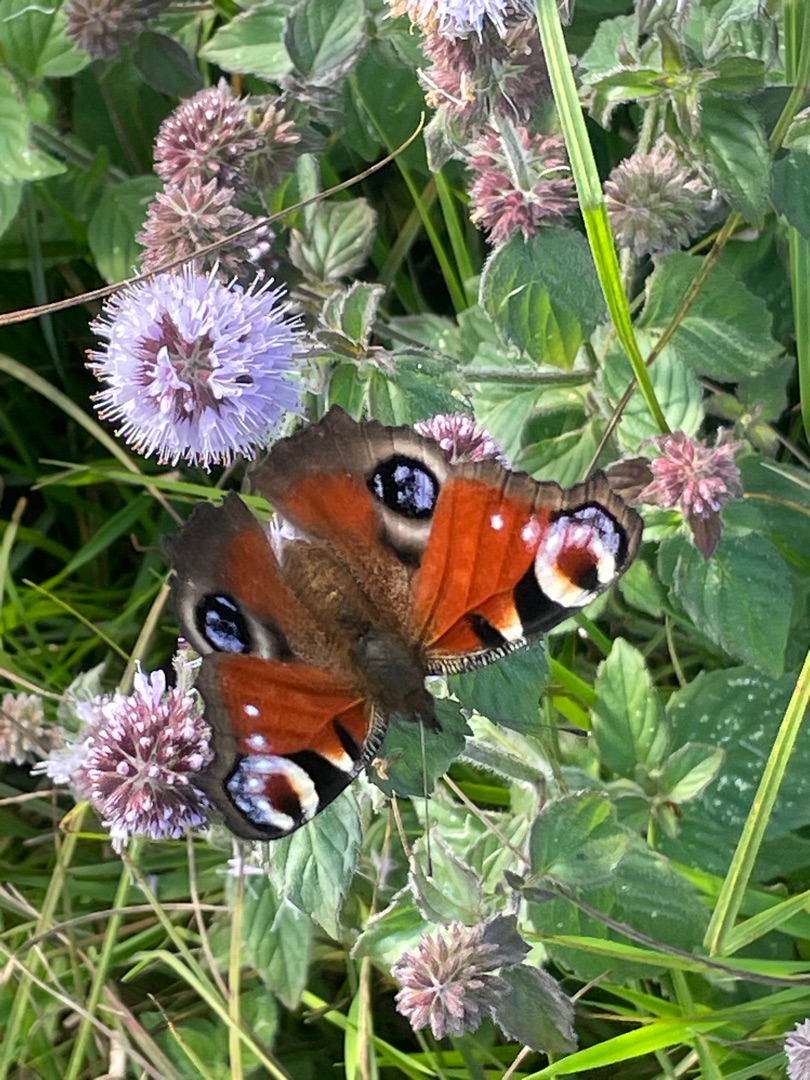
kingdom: Animalia
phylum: Arthropoda
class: Insecta
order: Lepidoptera
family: Nymphalidae
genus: Aglais
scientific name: Aglais io
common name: Dagpåfugleøje
